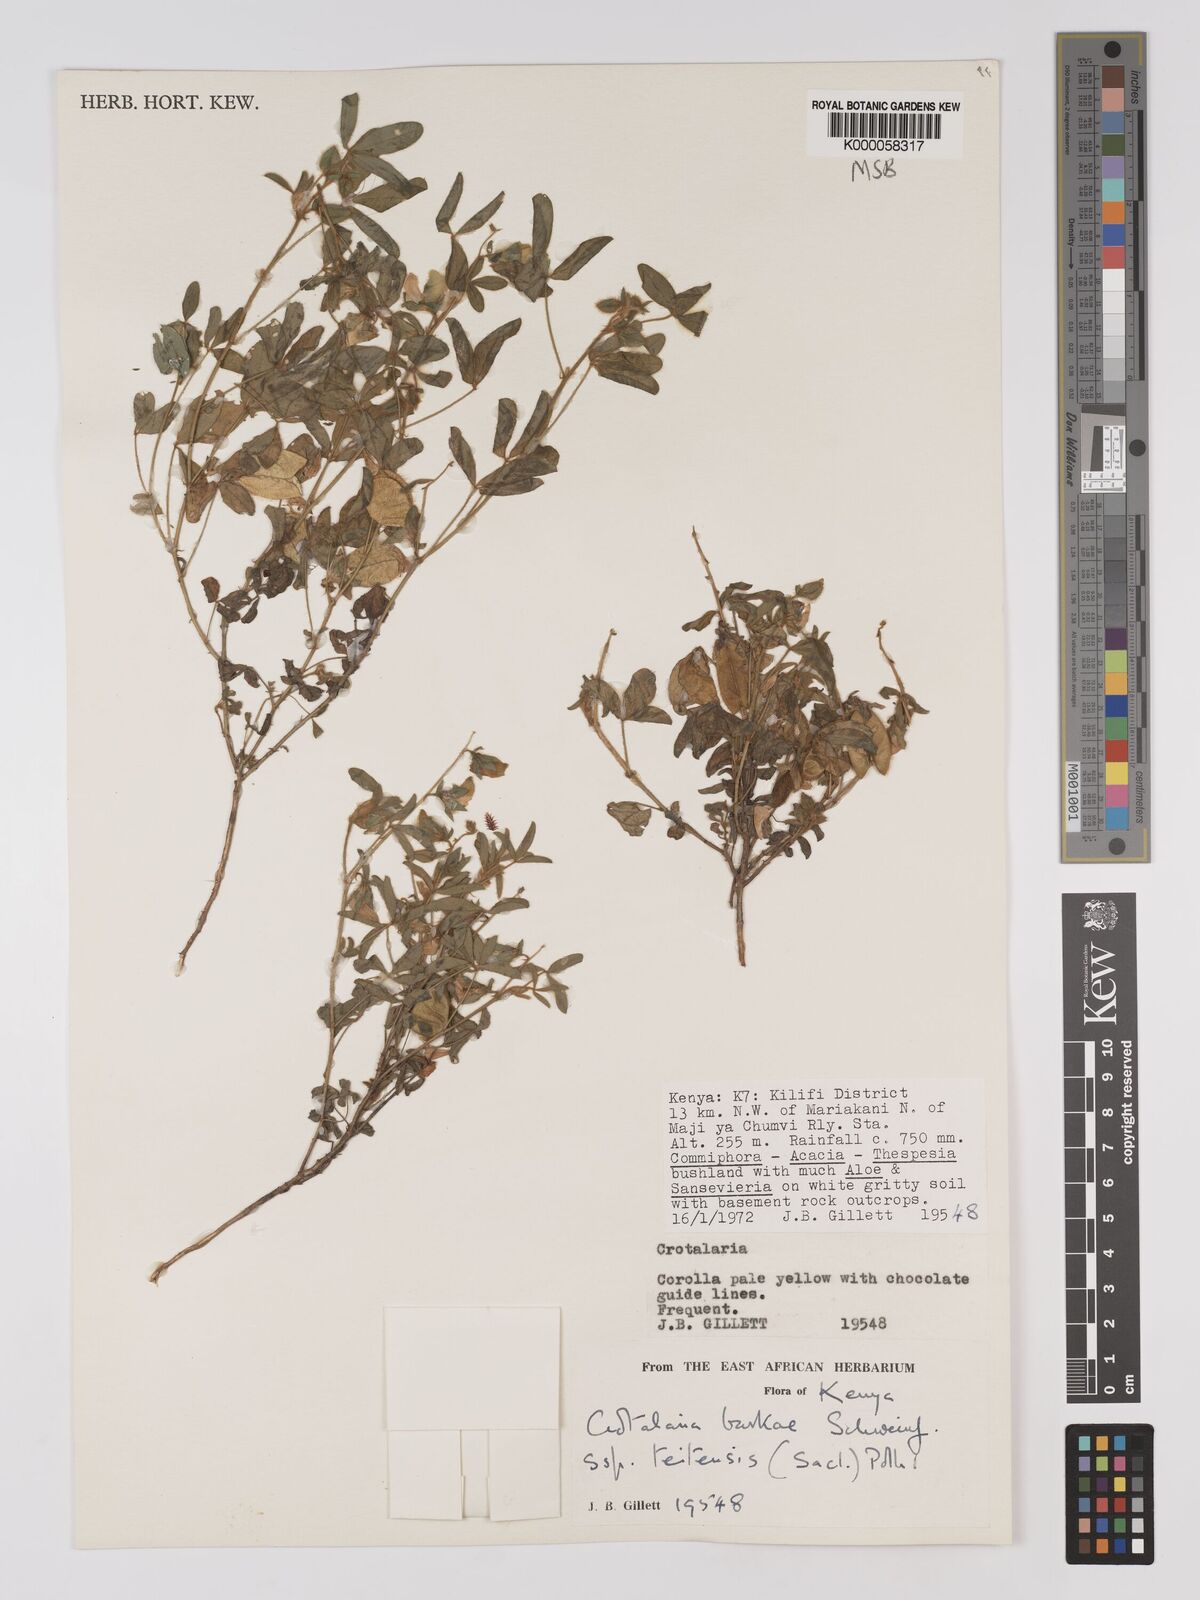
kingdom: Plantae
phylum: Tracheophyta
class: Magnoliopsida
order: Fabales
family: Fabaceae
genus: Crotalaria
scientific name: Crotalaria barkae
